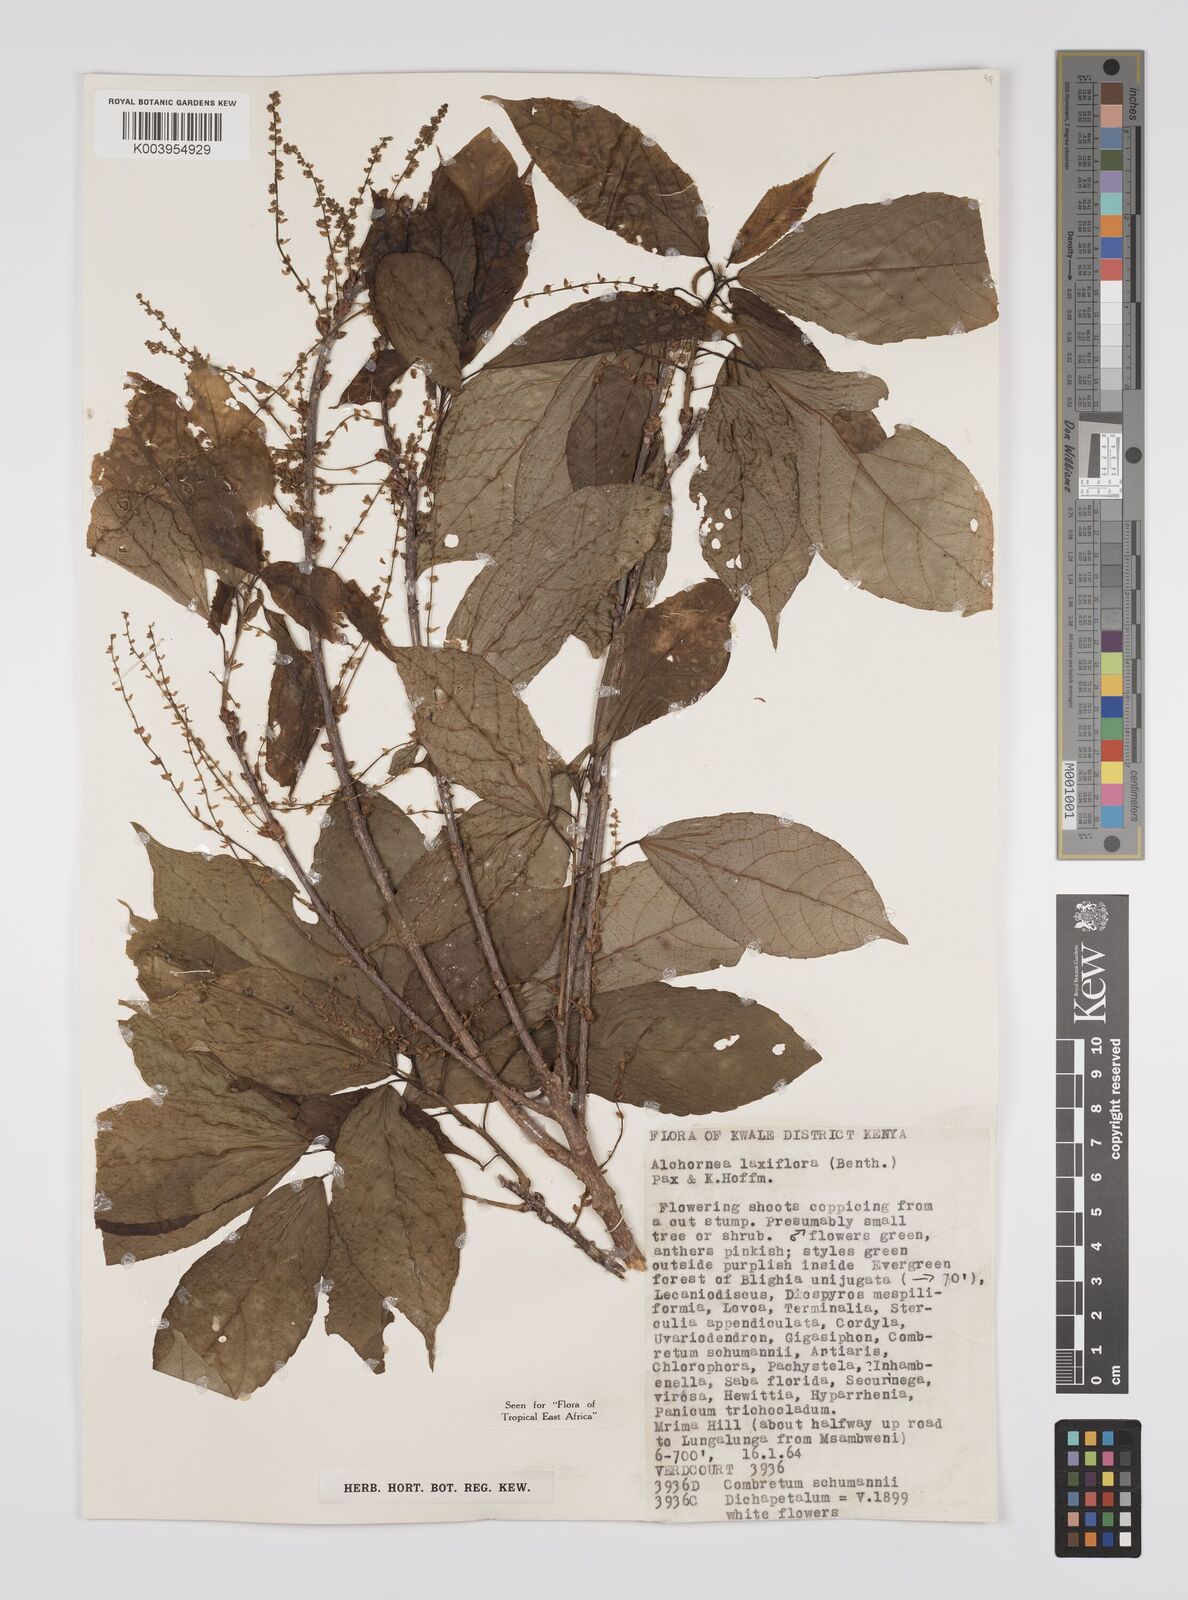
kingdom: Plantae
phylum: Tracheophyta
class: Magnoliopsida
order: Malpighiales
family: Euphorbiaceae
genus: Alchornea
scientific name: Alchornea laxiflora
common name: Lowveld bead-string
